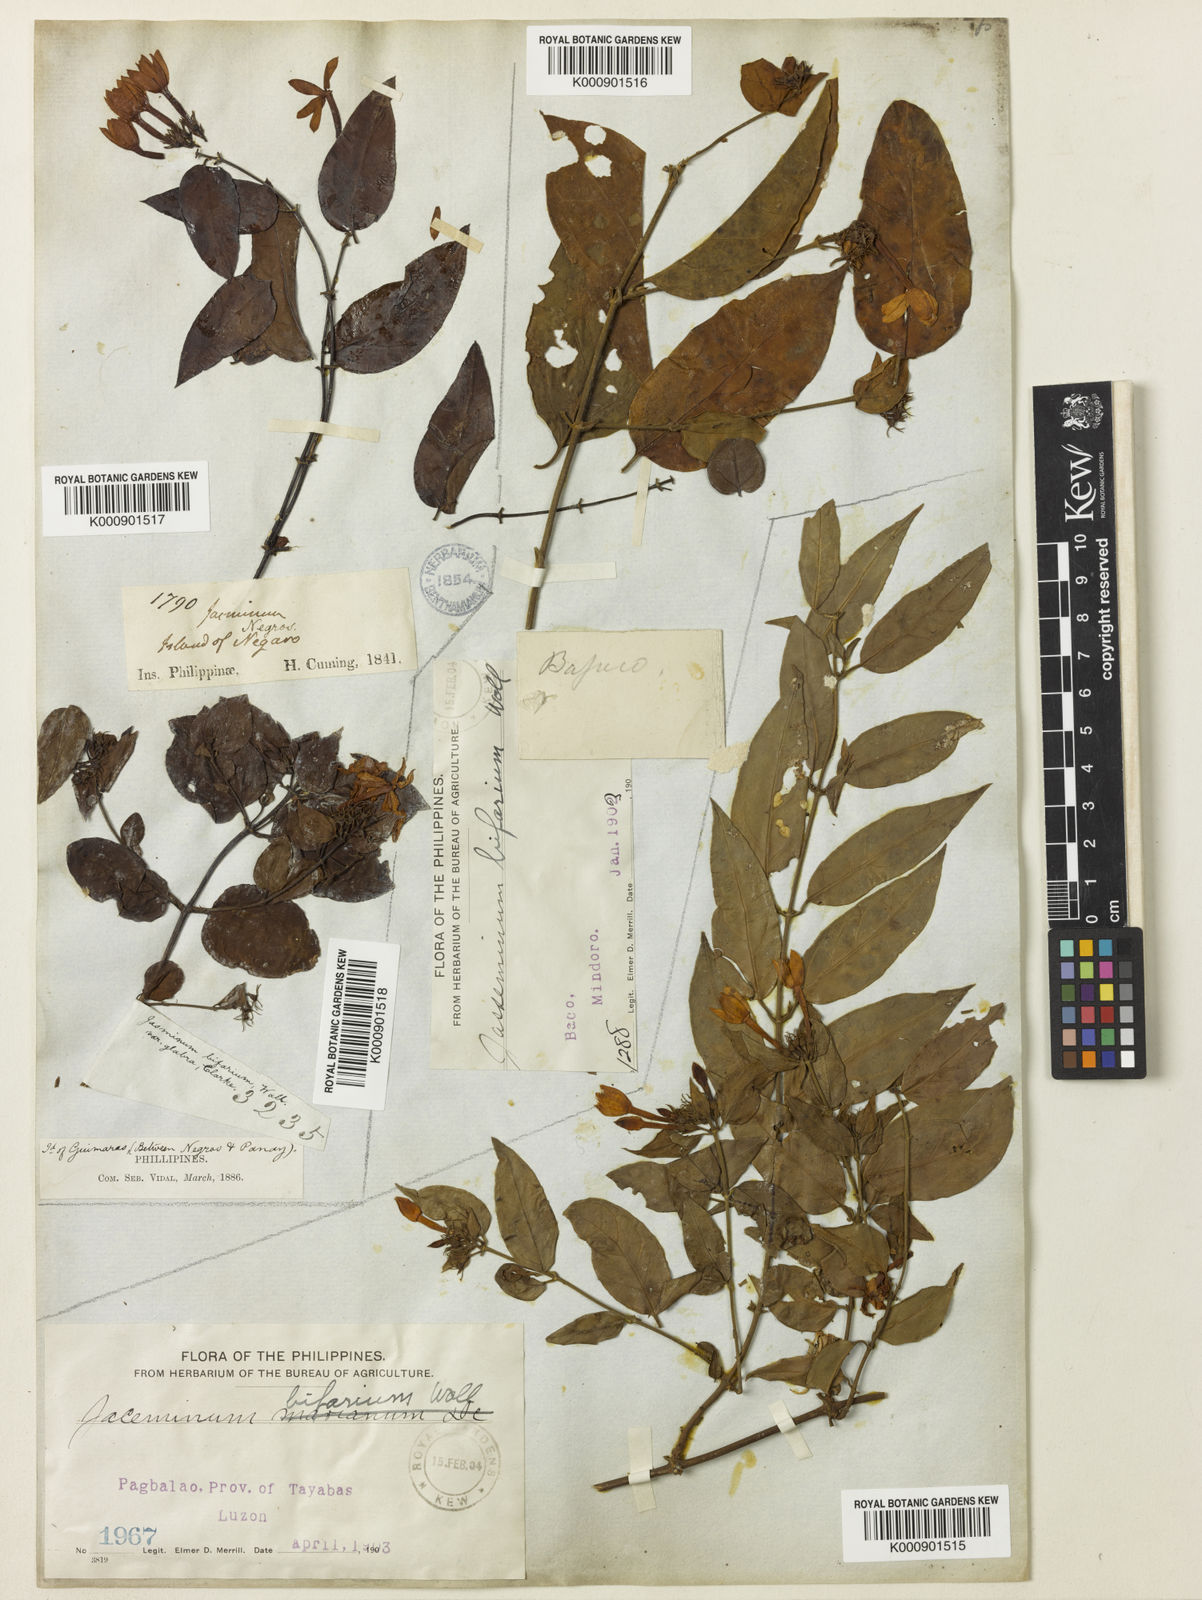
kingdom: Plantae
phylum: Tracheophyta
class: Magnoliopsida
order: Lamiales
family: Oleaceae
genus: Jasminum
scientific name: Jasminum
